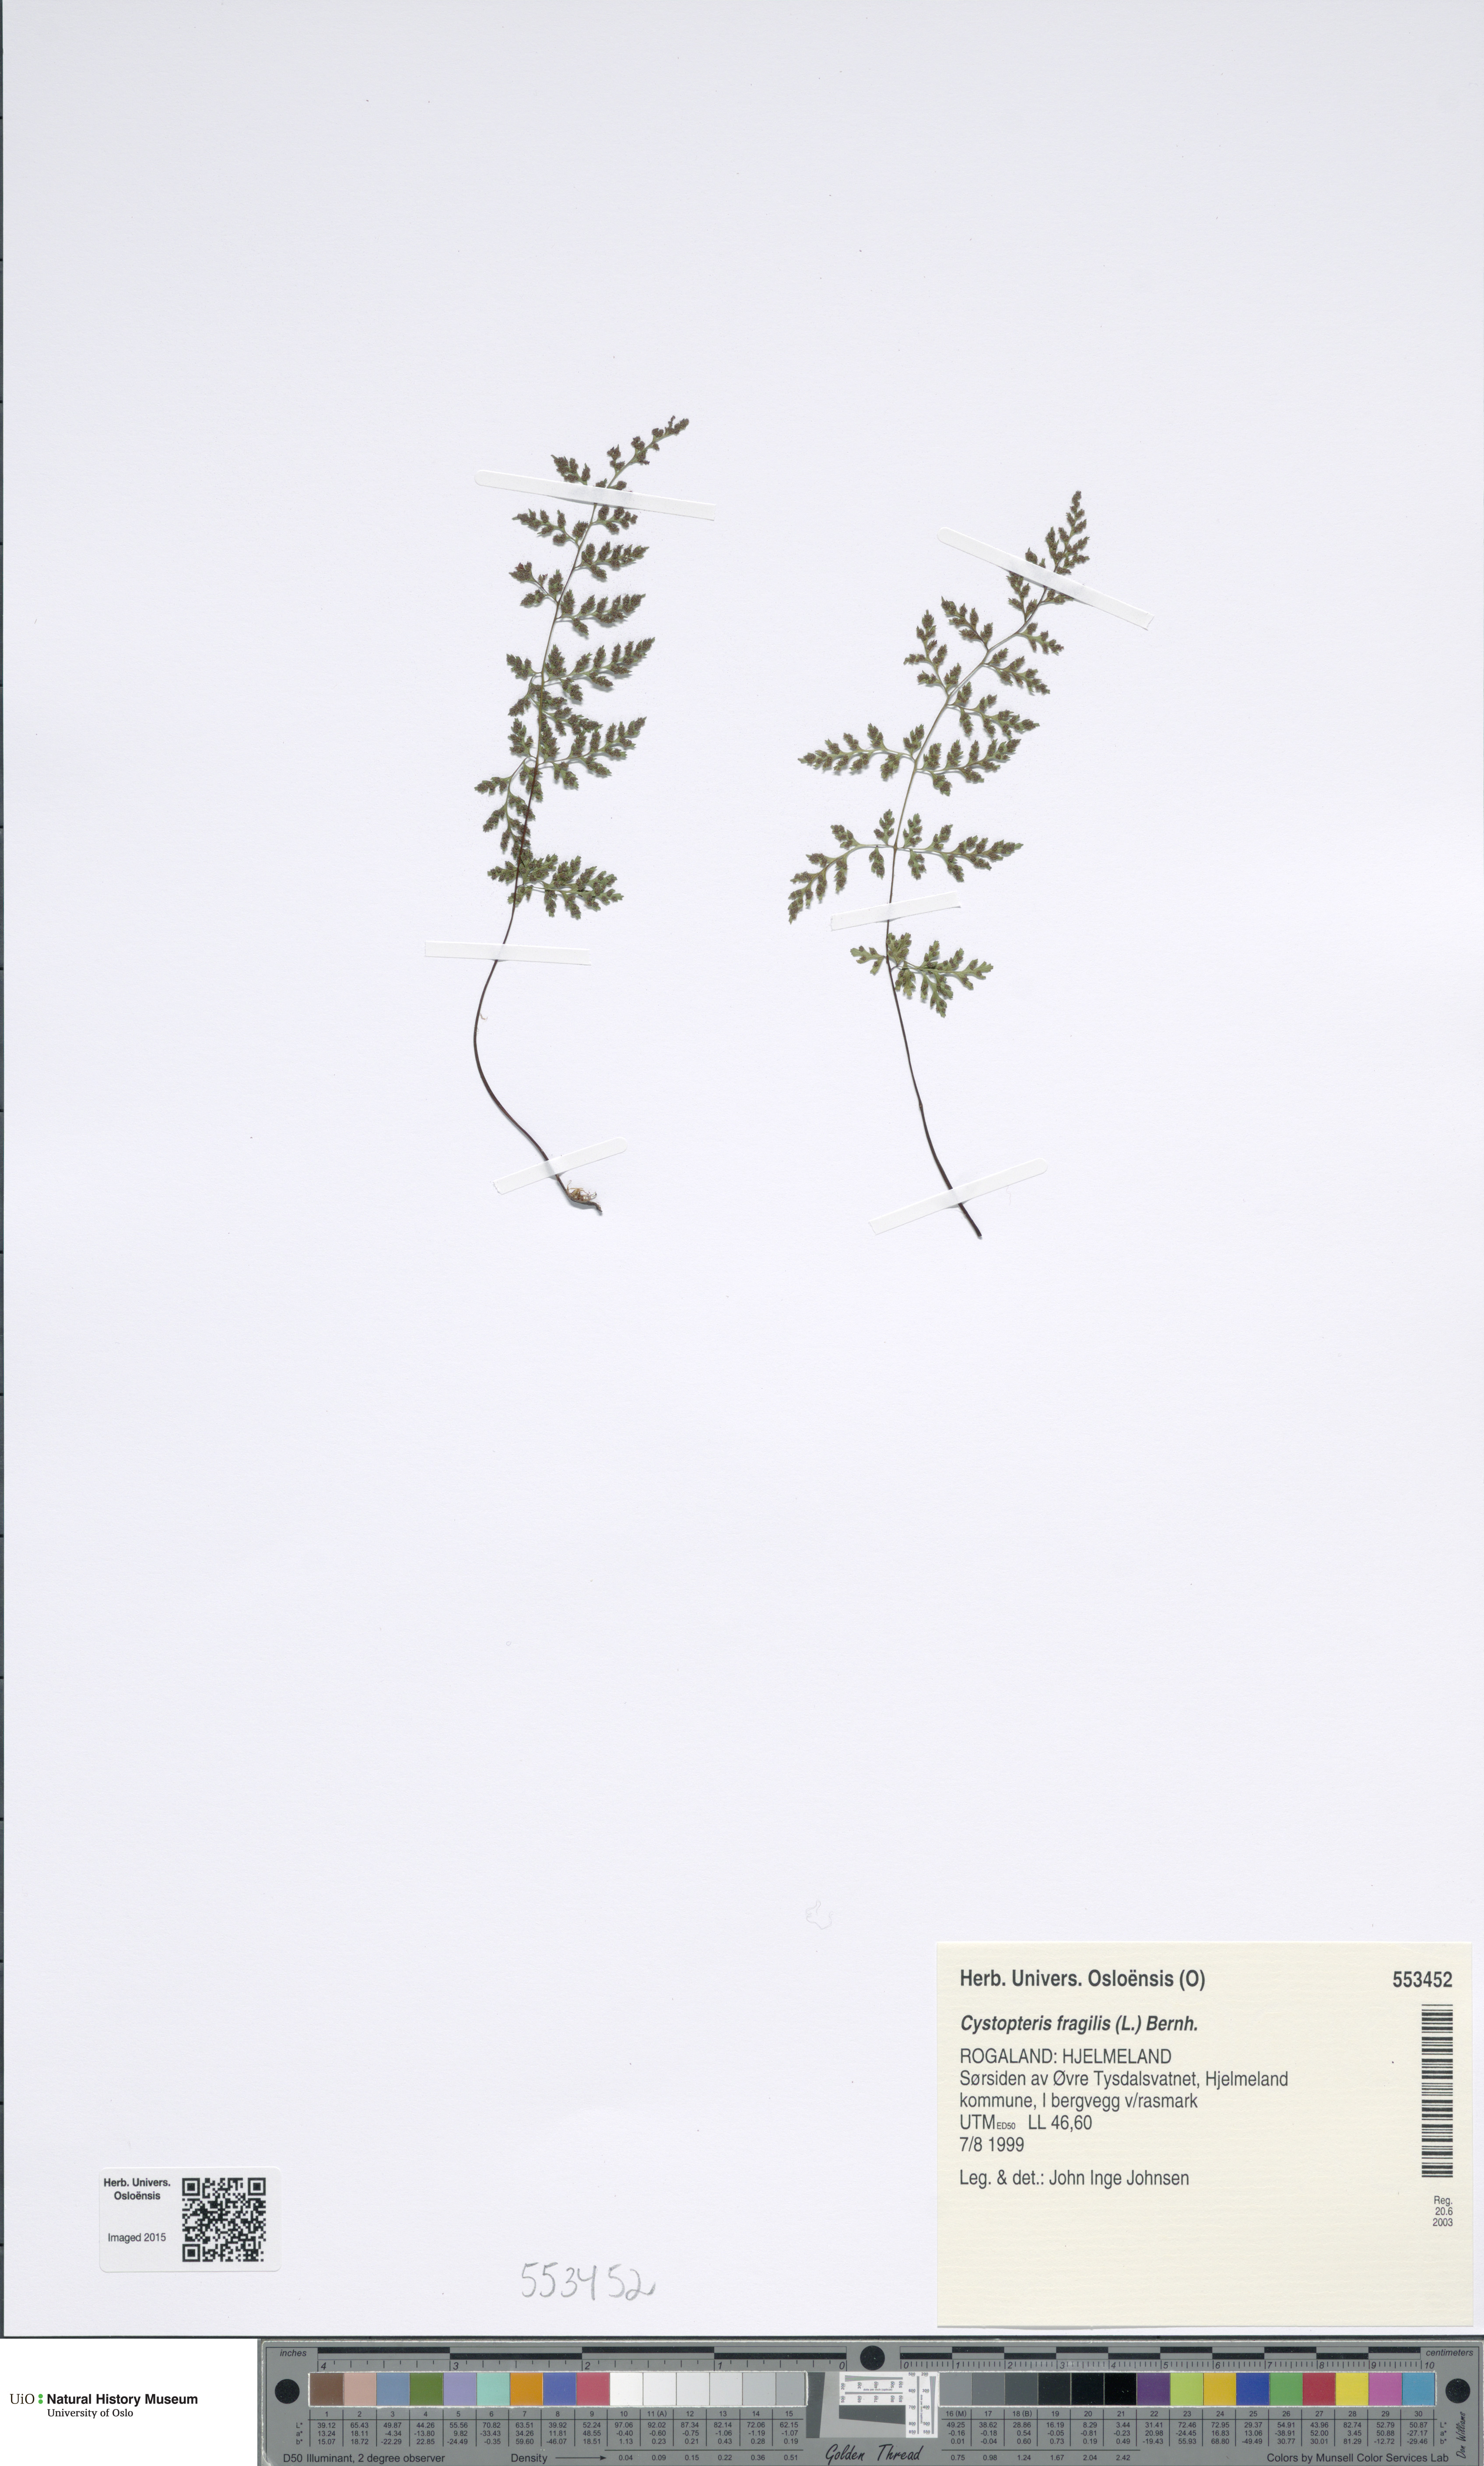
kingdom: Plantae
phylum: Tracheophyta
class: Polypodiopsida
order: Polypodiales
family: Cystopteridaceae
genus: Cystopteris
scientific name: Cystopteris fragilis
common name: Brittle bladder fern
